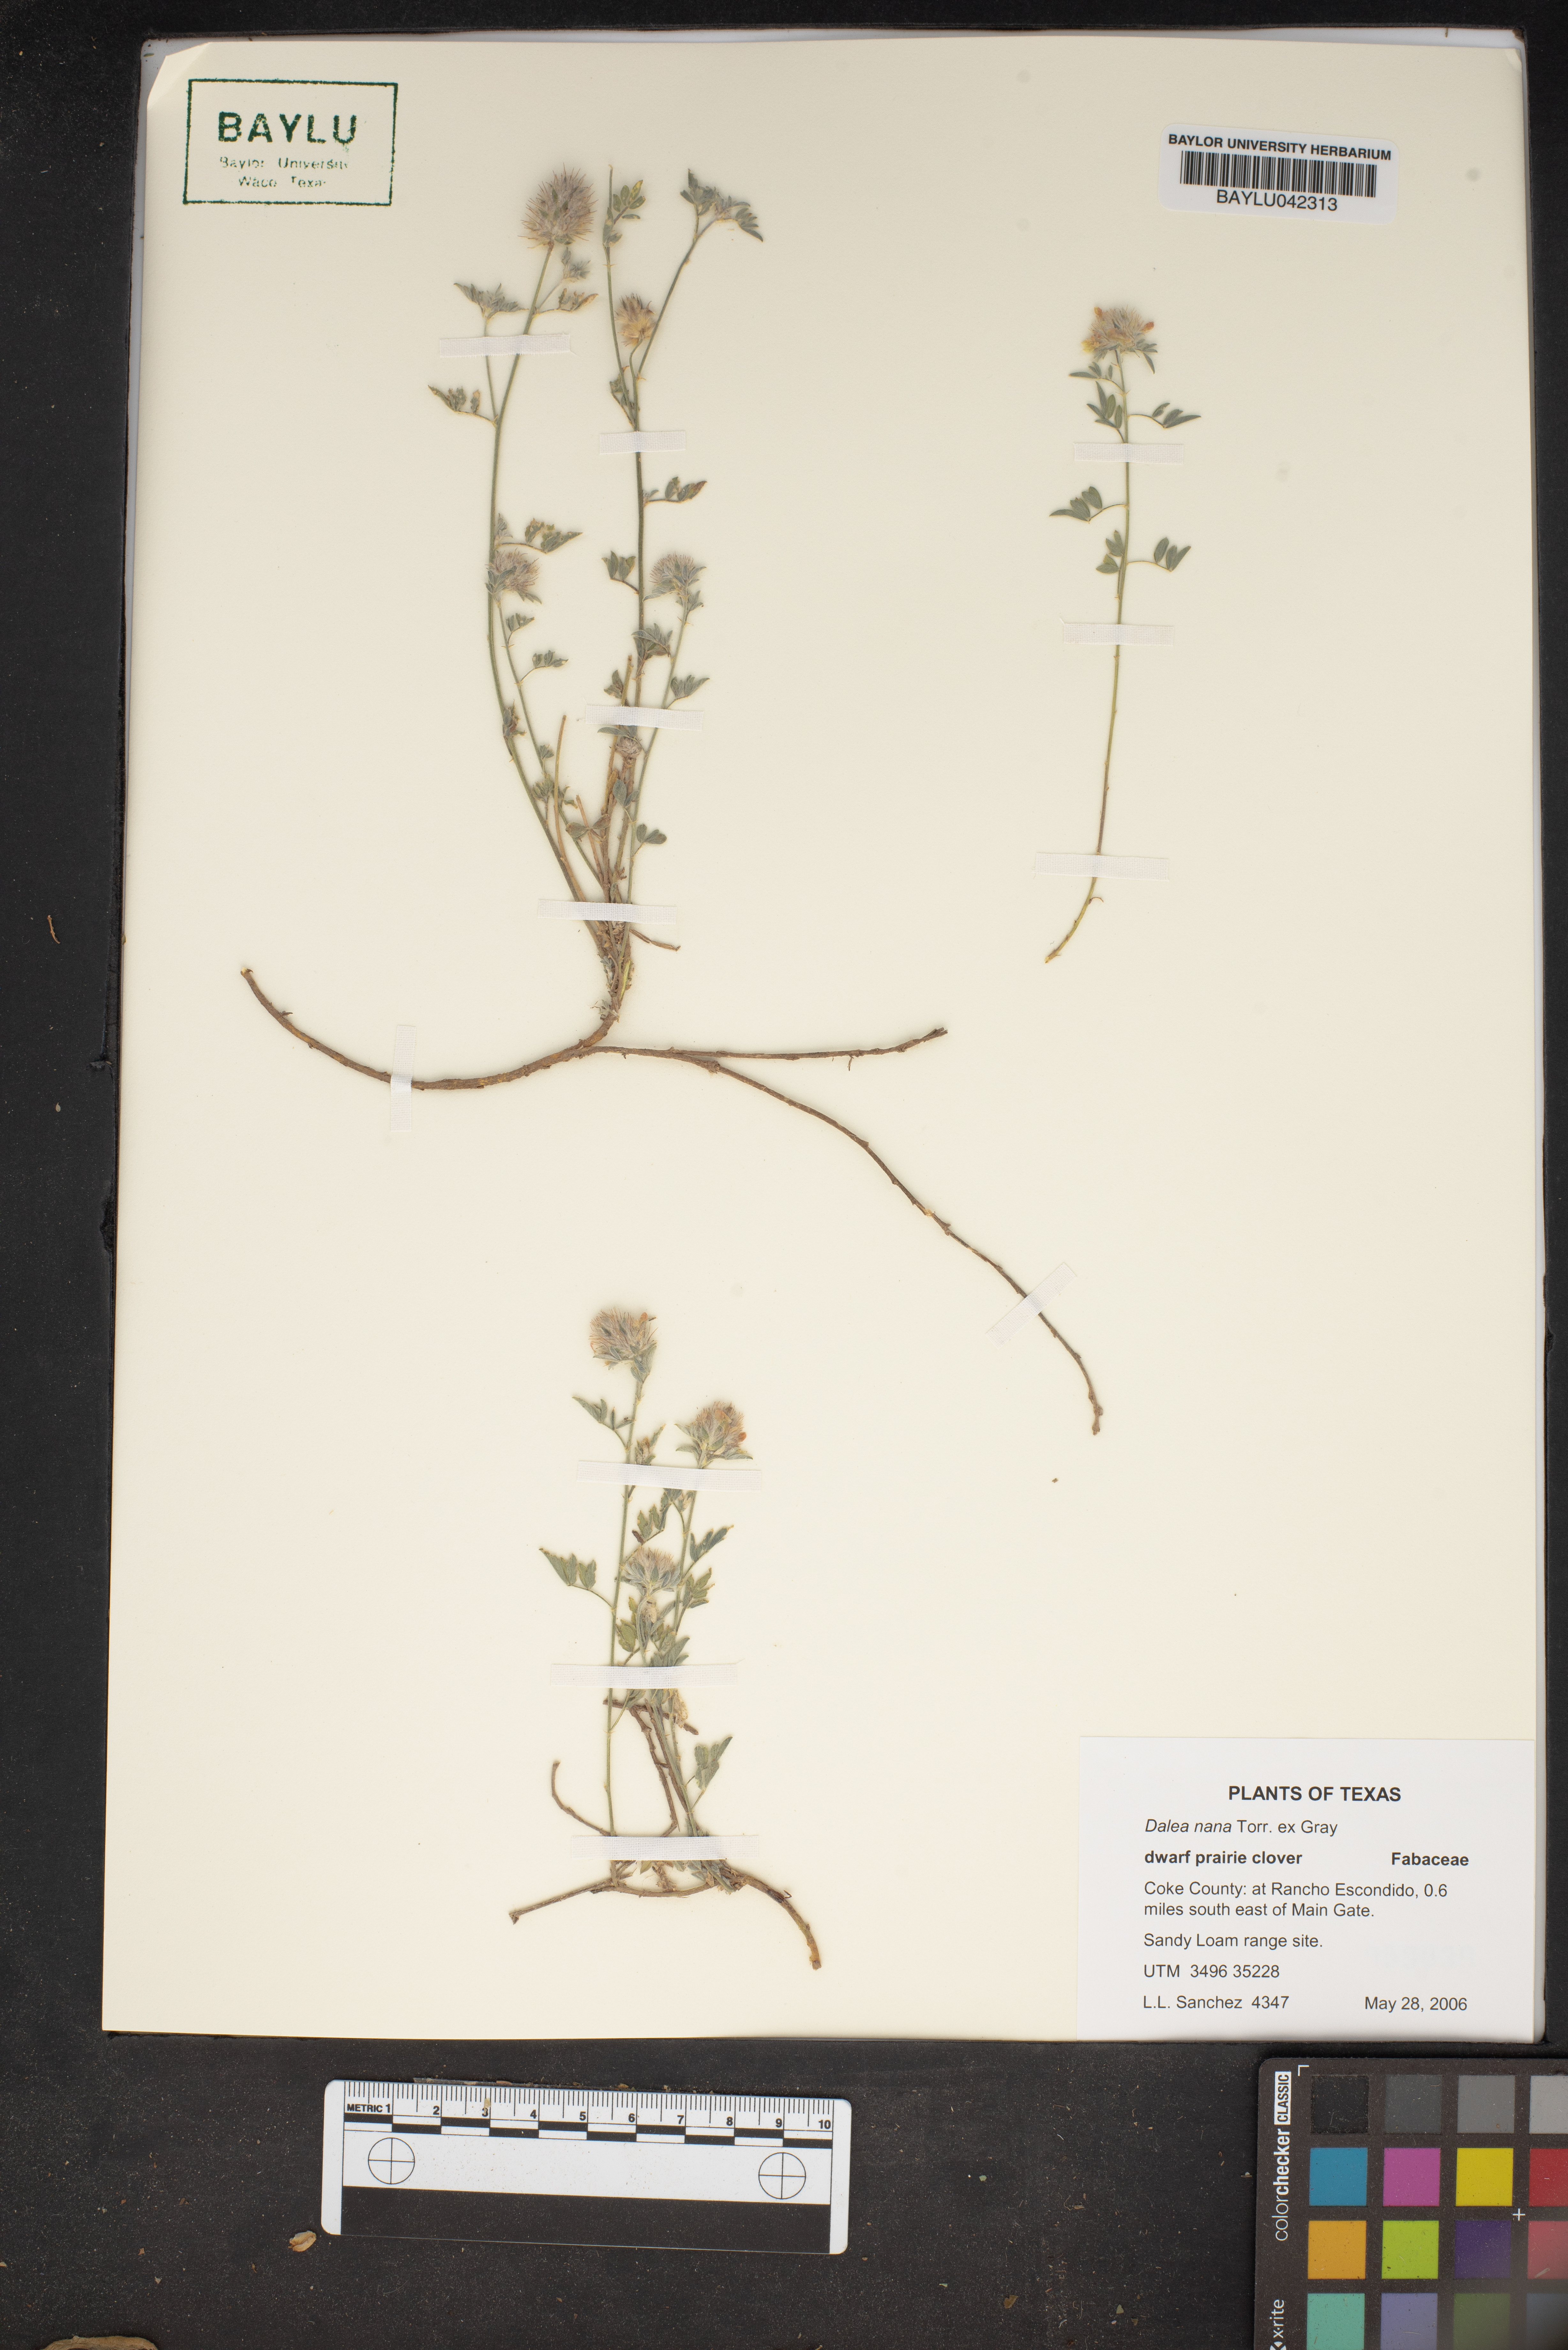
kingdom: Plantae
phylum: Tracheophyta
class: Magnoliopsida
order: Fabales
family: Fabaceae
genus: Dalea
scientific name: Dalea nana
